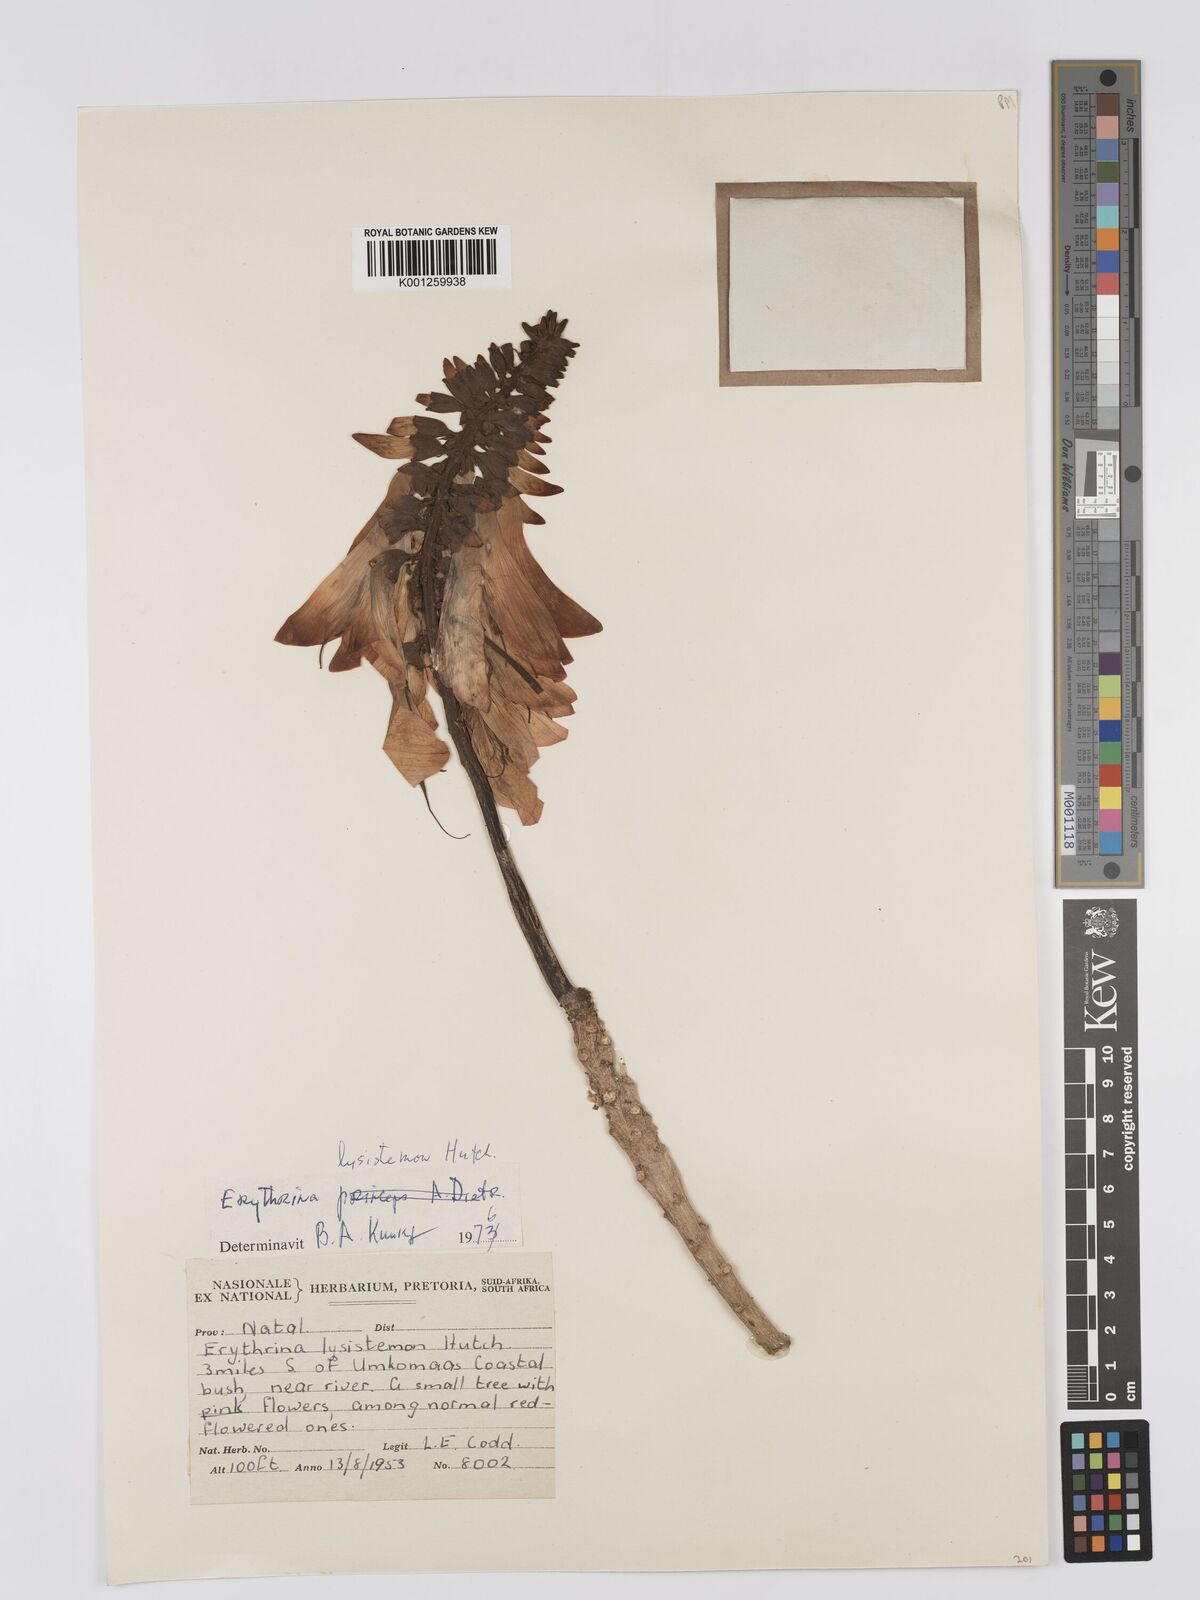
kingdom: Plantae
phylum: Tracheophyta
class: Magnoliopsida
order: Fabales
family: Fabaceae
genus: Erythrina
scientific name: Erythrina lysistemon
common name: Common coral tree
